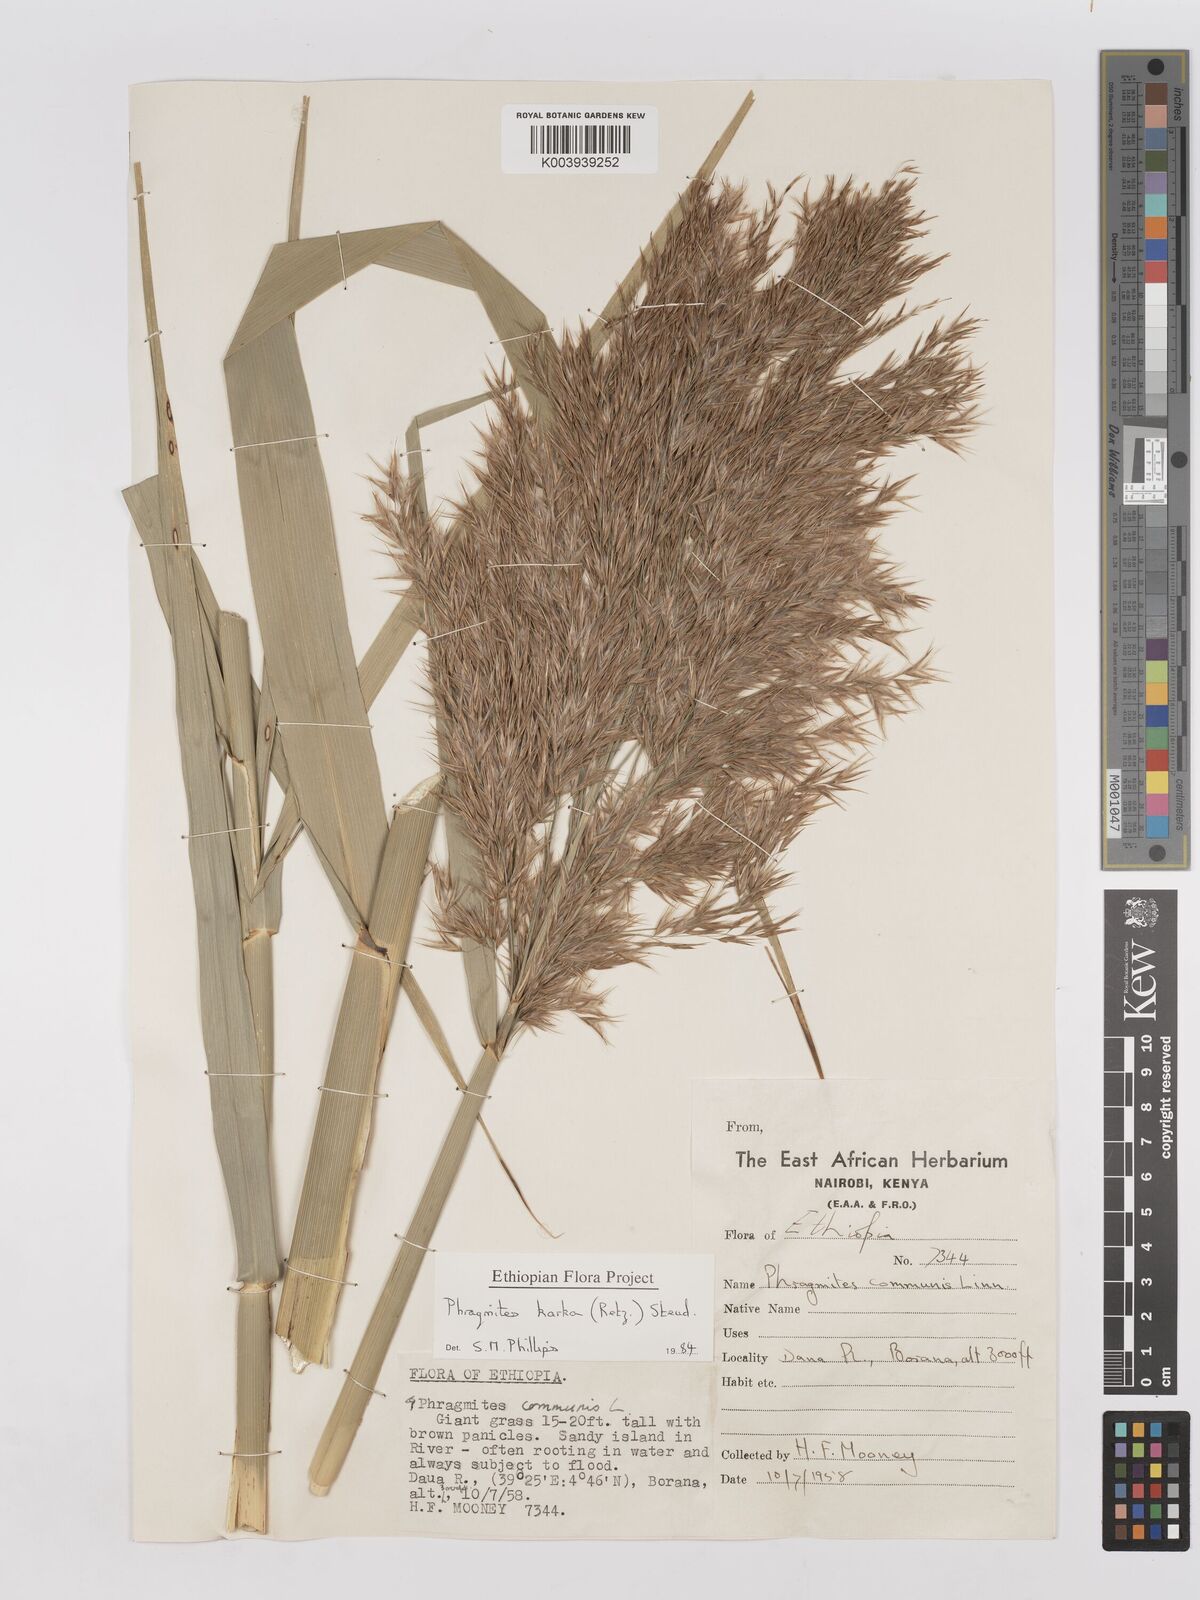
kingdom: Plantae
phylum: Tracheophyta
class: Liliopsida
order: Poales
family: Poaceae
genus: Phragmites
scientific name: Phragmites karka
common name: Tropical reed
